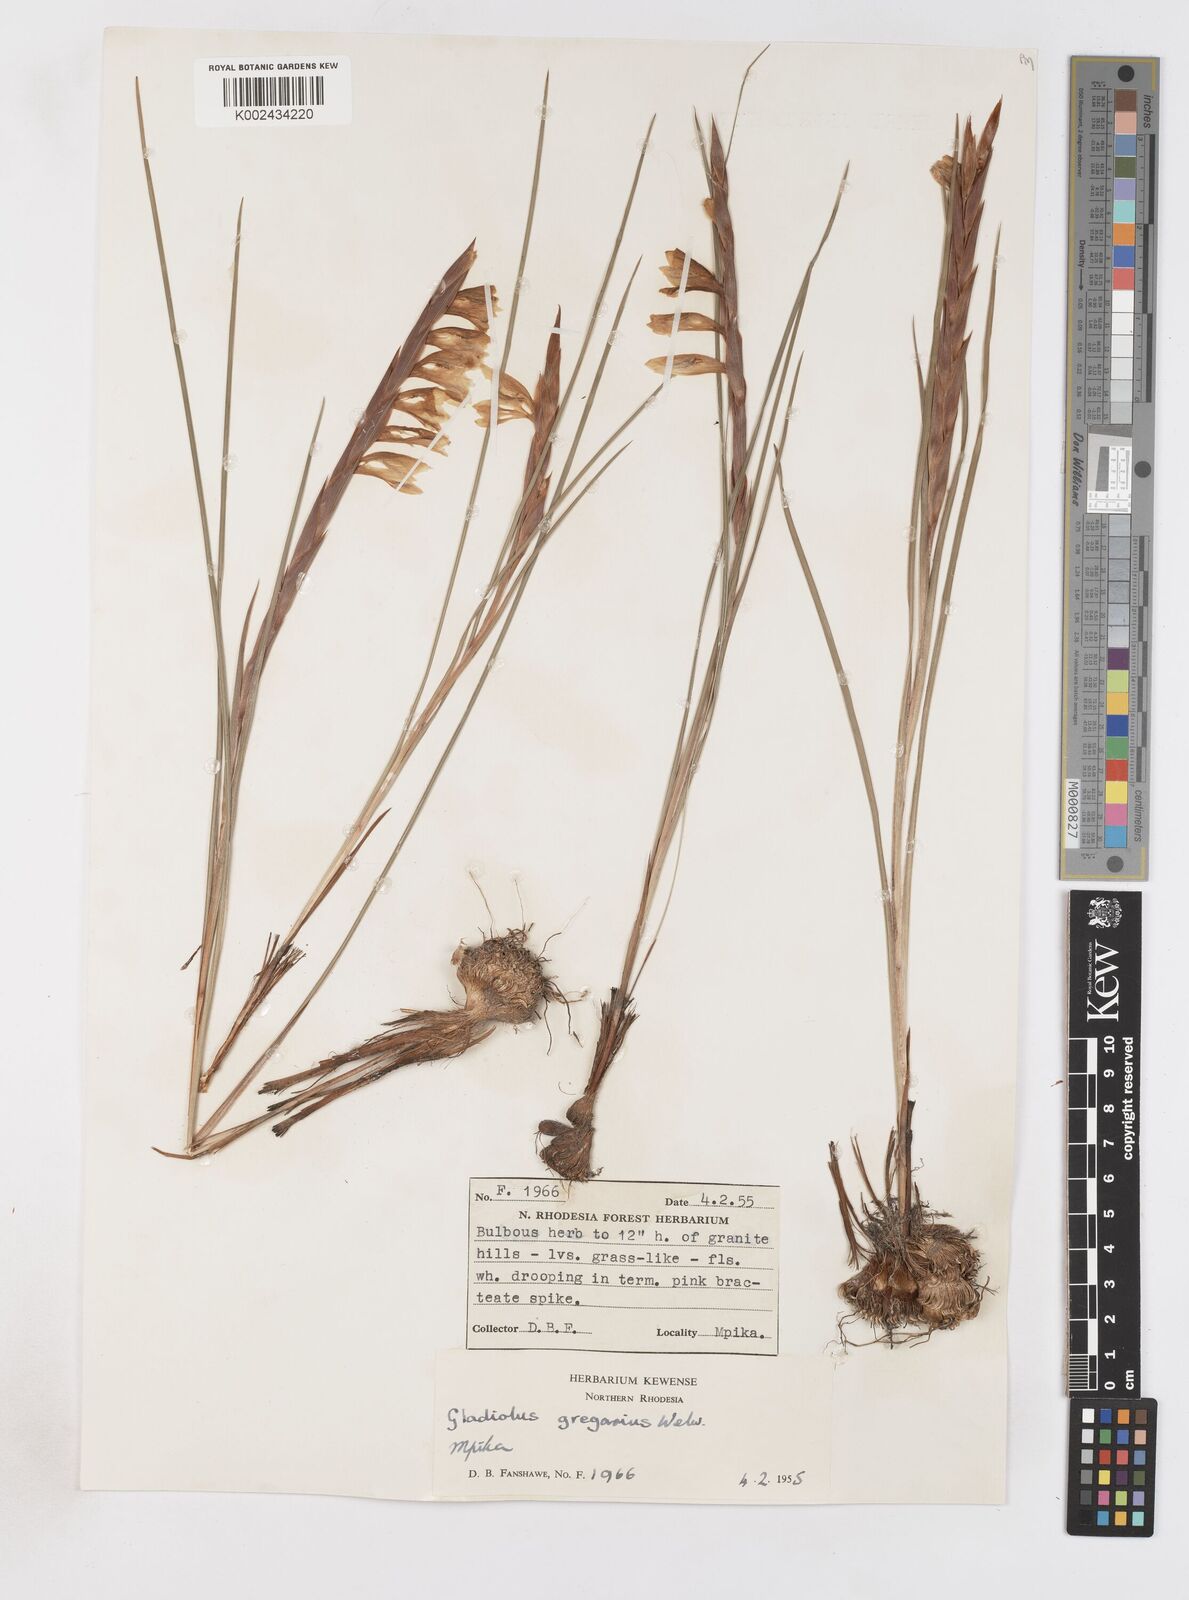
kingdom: Plantae
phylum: Tracheophyta
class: Liliopsida
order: Asparagales
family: Iridaceae
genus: Gladiolus
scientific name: Gladiolus gregarius
